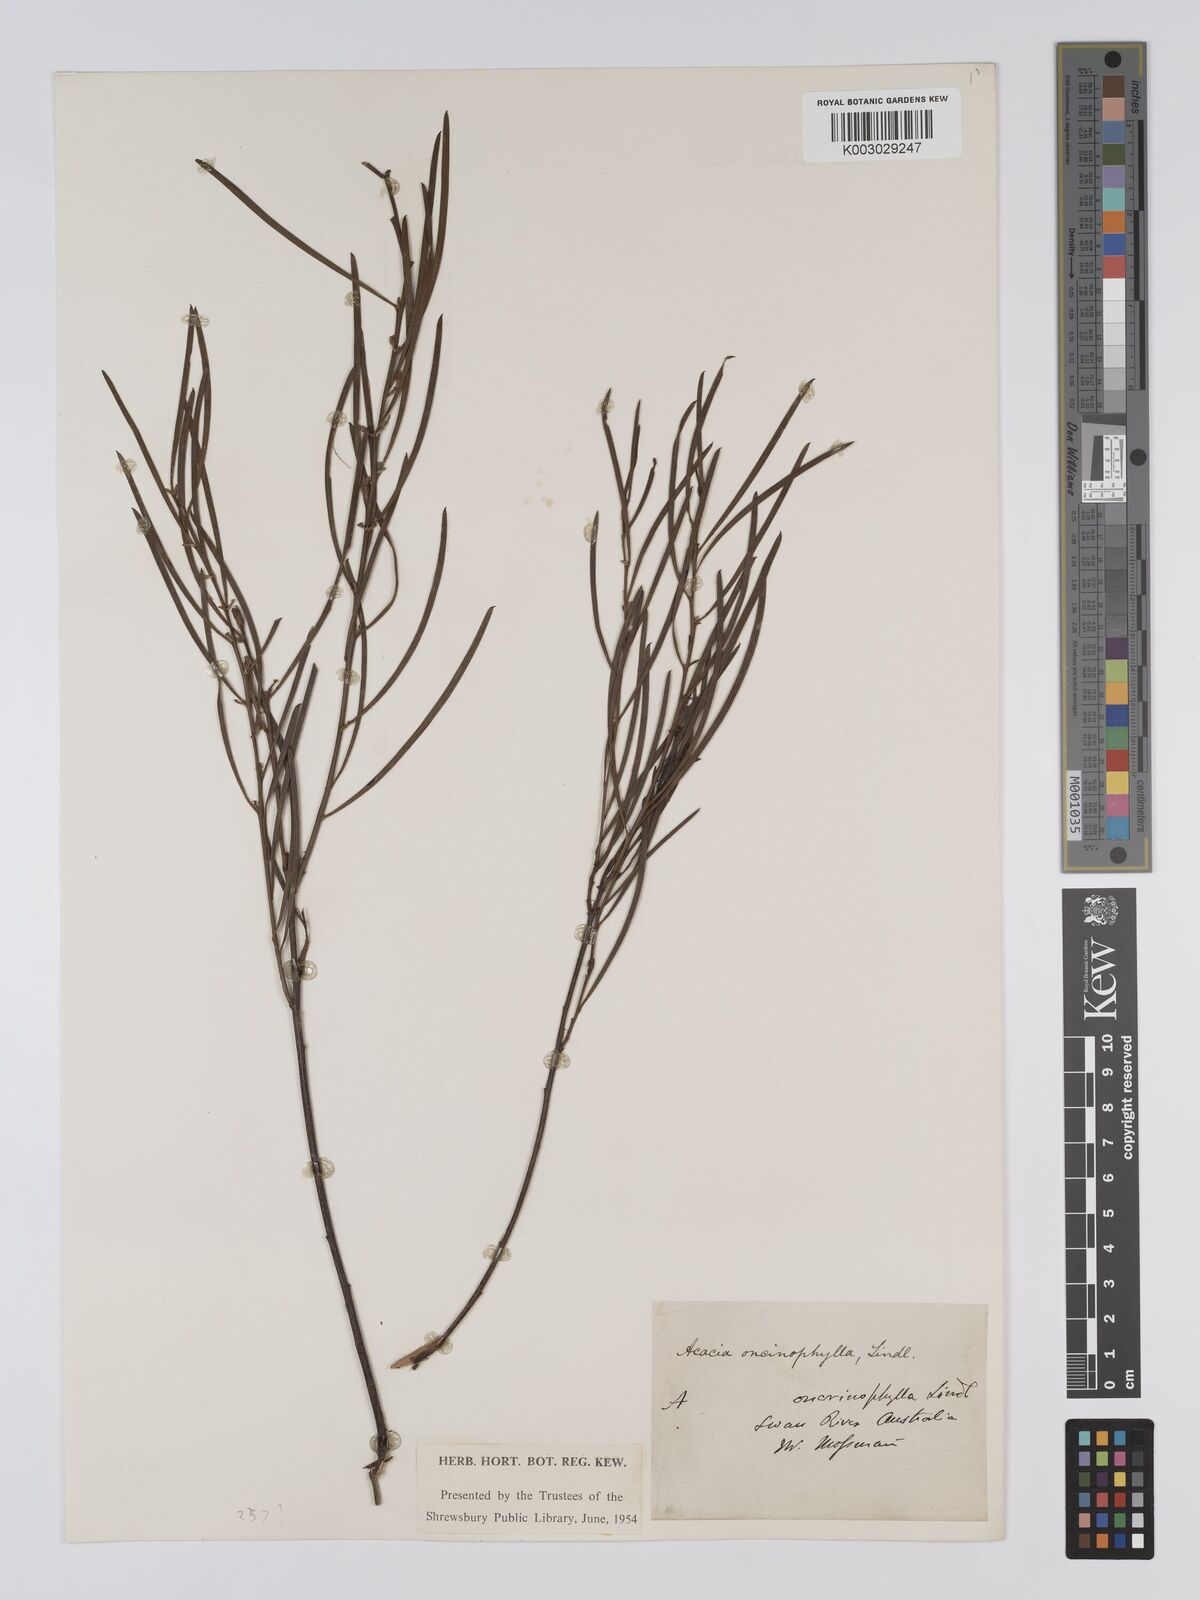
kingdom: Plantae
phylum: Tracheophyta
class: Magnoliopsida
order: Fabales
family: Fabaceae
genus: Acacia
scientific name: Acacia oncinophylla
